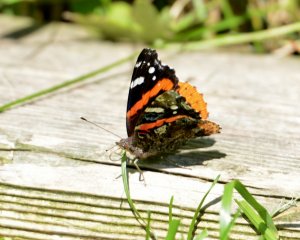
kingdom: Animalia
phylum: Arthropoda
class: Insecta
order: Lepidoptera
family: Nymphalidae
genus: Vanessa
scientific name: Vanessa atalanta
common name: Red Admiral
